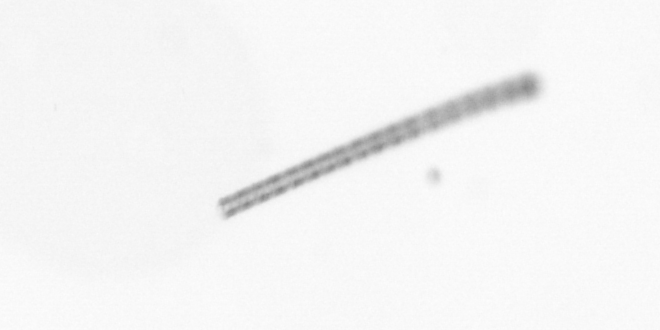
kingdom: Chromista
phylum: Ochrophyta
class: Bacillariophyceae
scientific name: Bacillariophyceae
